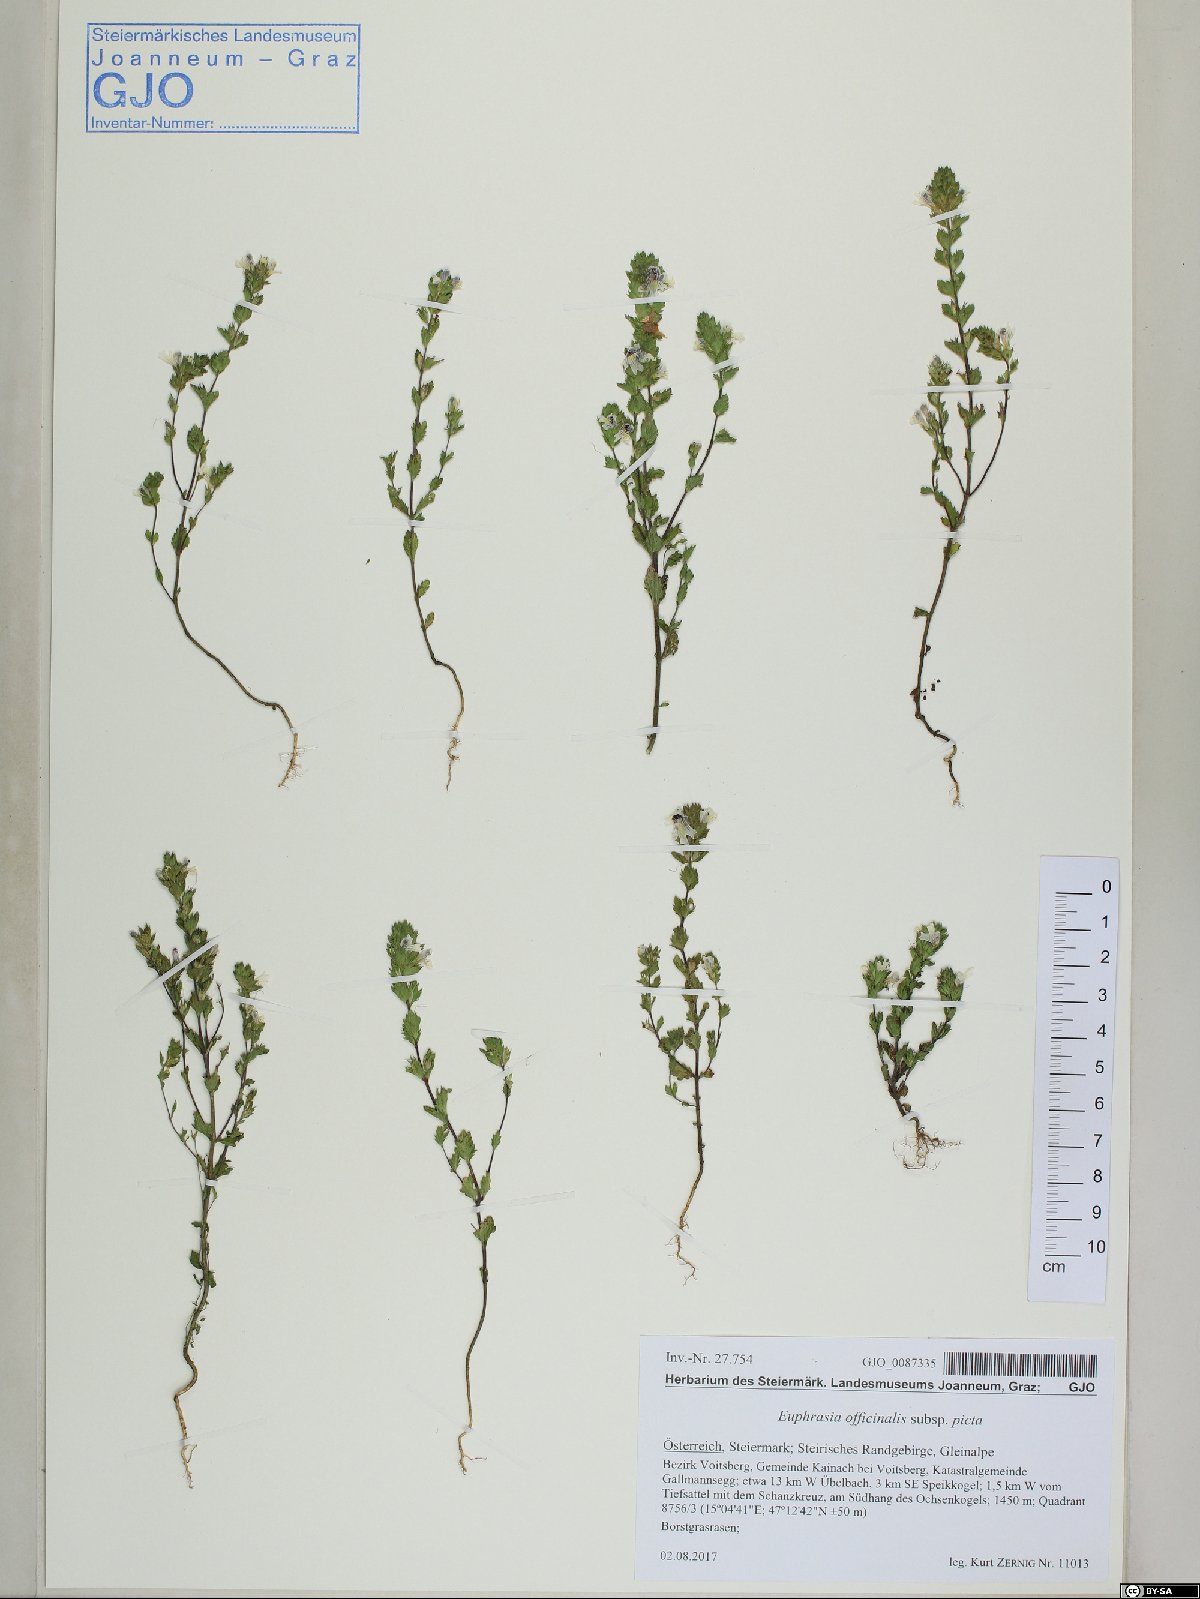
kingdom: Plantae
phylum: Tracheophyta
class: Magnoliopsida
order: Lamiales
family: Orobanchaceae
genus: Euphrasia
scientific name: Euphrasia officinalis
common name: Eyebright
